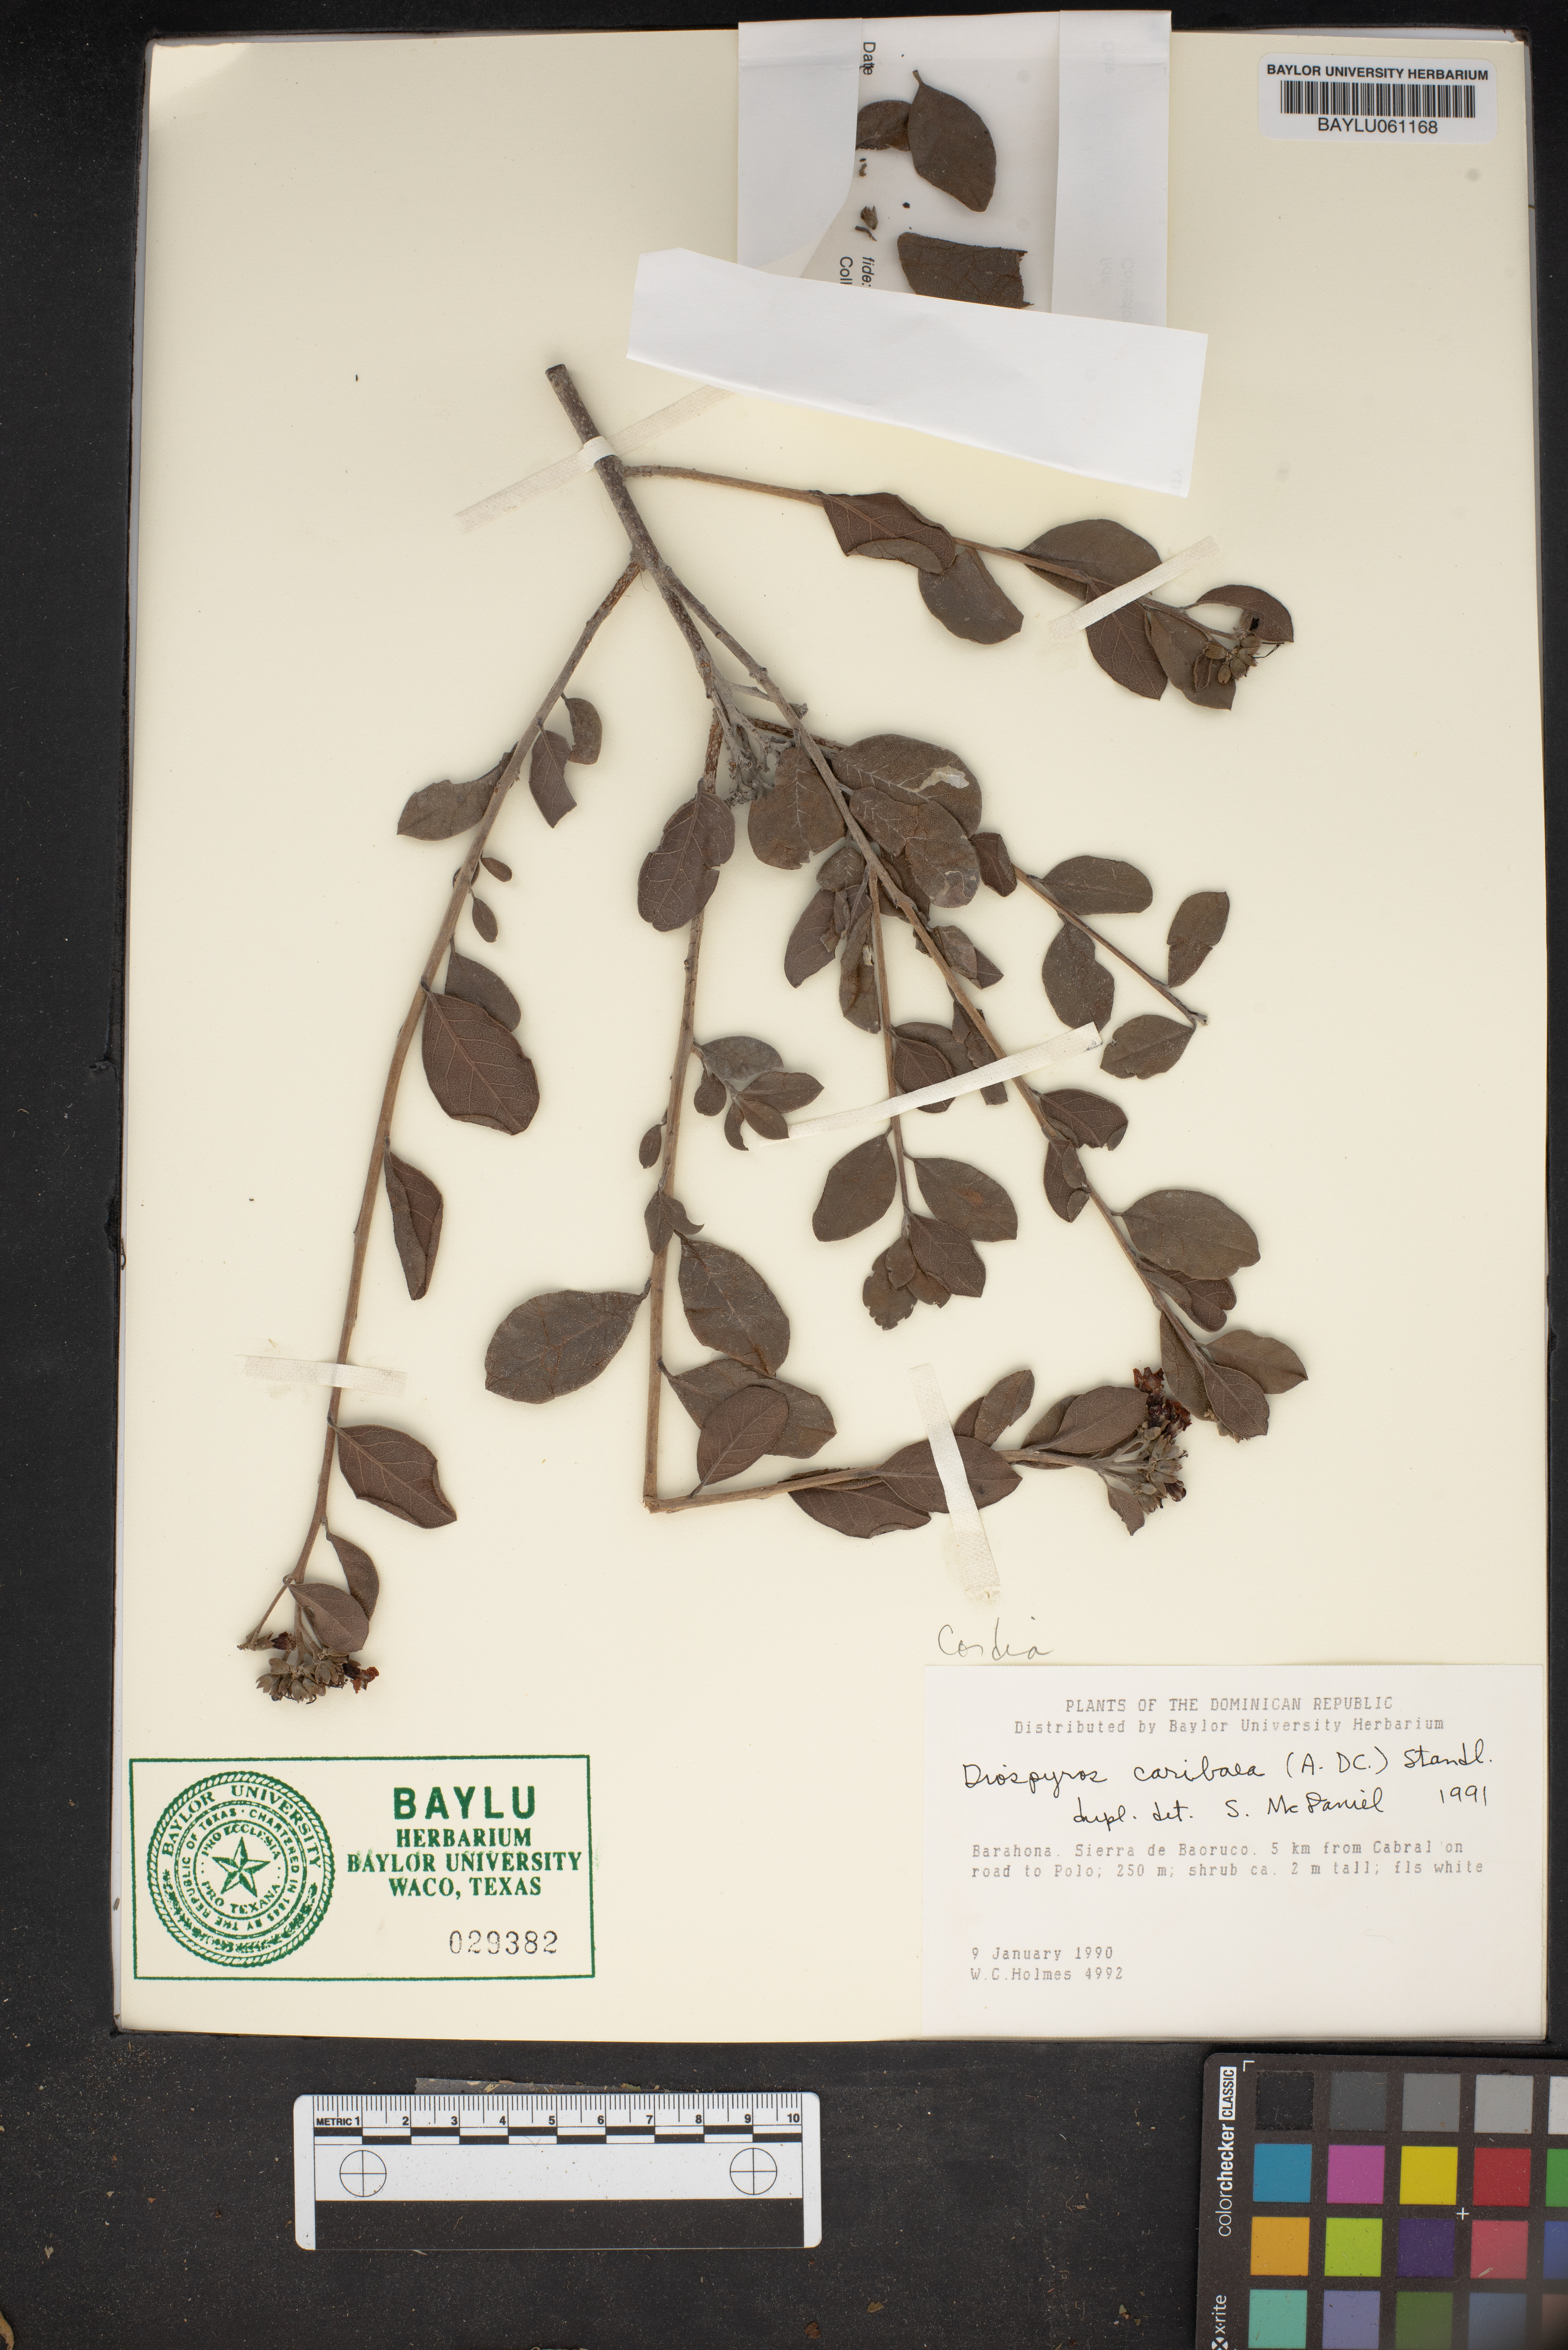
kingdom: Plantae
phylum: Tracheophyta
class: Magnoliopsida
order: Ericales
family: Ebenaceae
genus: Diospyros
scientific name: Diospyros caribaea
